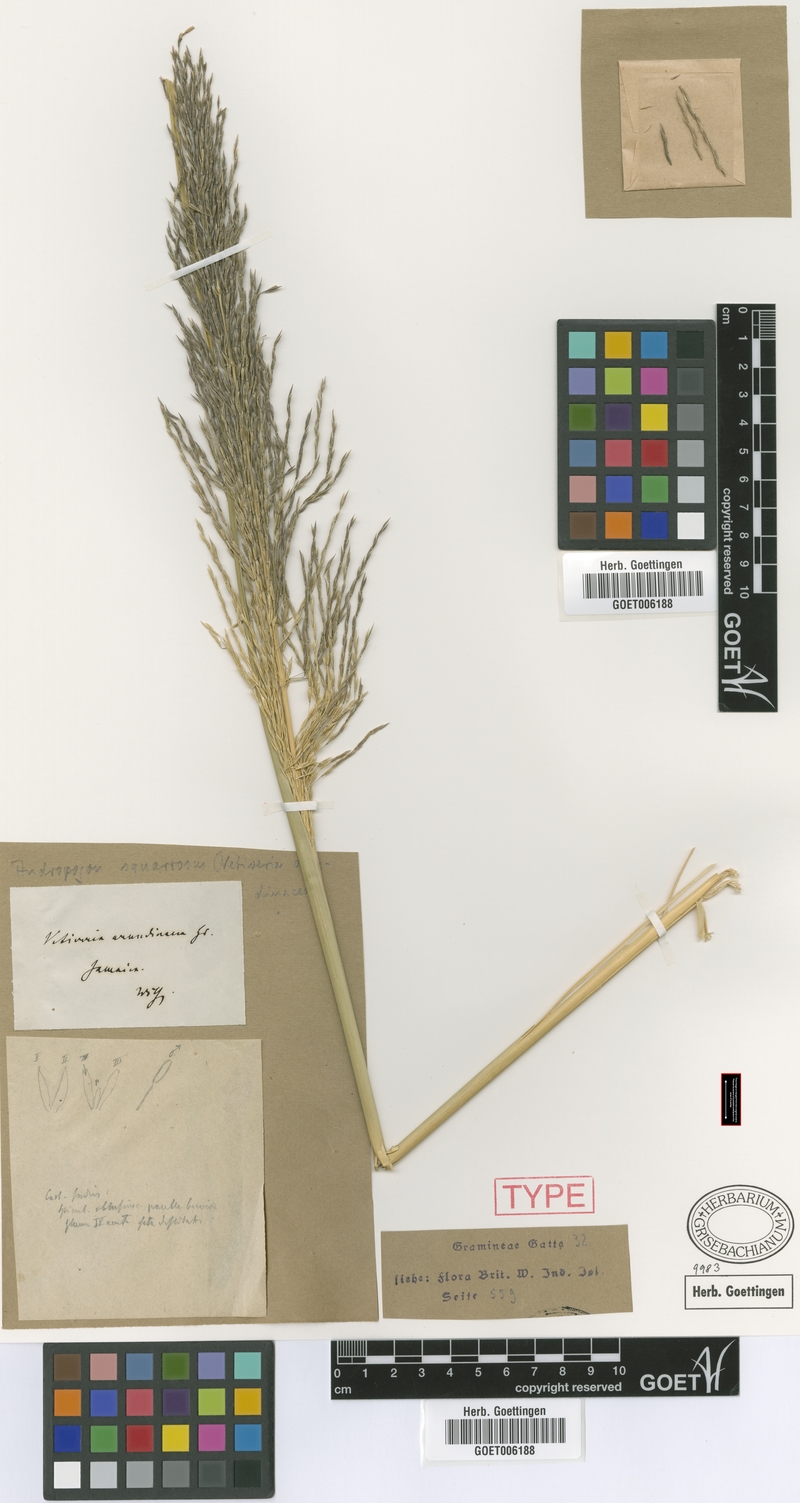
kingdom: Plantae
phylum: Tracheophyta
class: Liliopsida
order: Poales
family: Poaceae
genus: Chrysopogon
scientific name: Chrysopogon zizanioides
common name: False beardgrass
